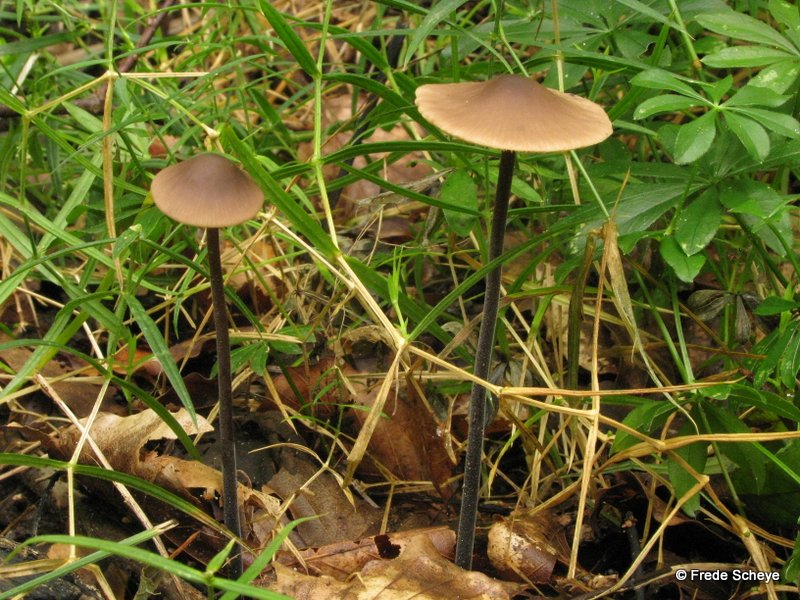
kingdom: Fungi
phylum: Basidiomycota
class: Agaricomycetes
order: Agaricales
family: Omphalotaceae
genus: Mycetinis
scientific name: Mycetinis alliaceus
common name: stor løghat
